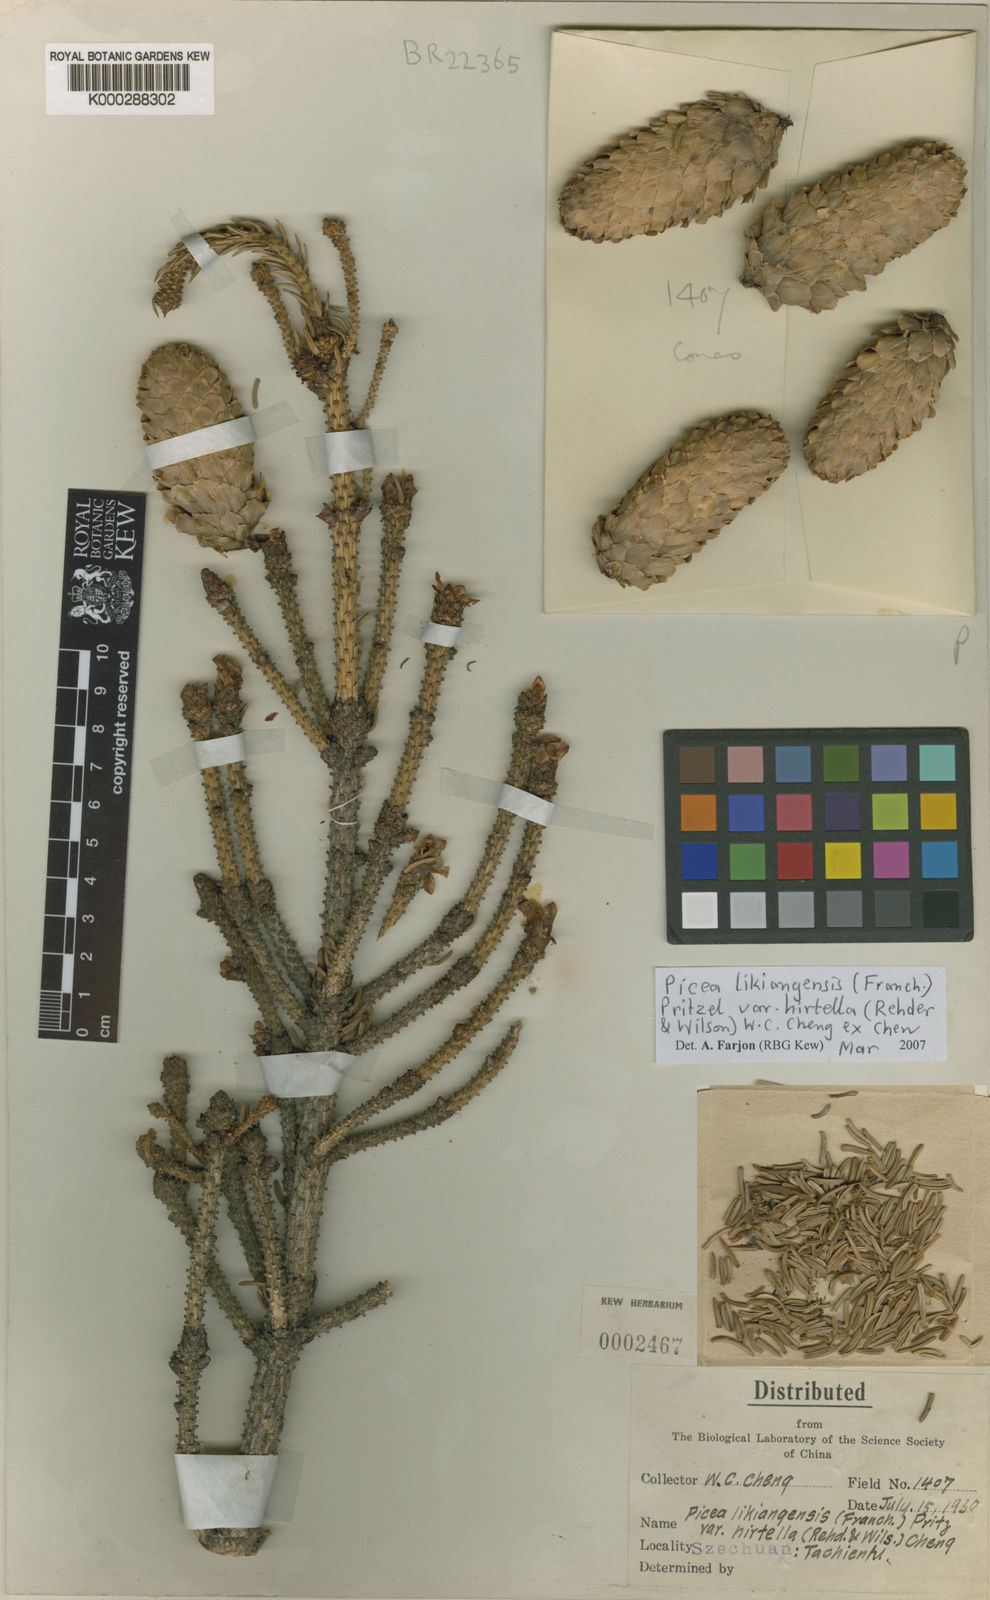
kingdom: Plantae
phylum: Tracheophyta
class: Pinopsida
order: Pinales
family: Pinaceae
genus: Picea
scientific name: Picea likiangensis
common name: Likiang spruce
